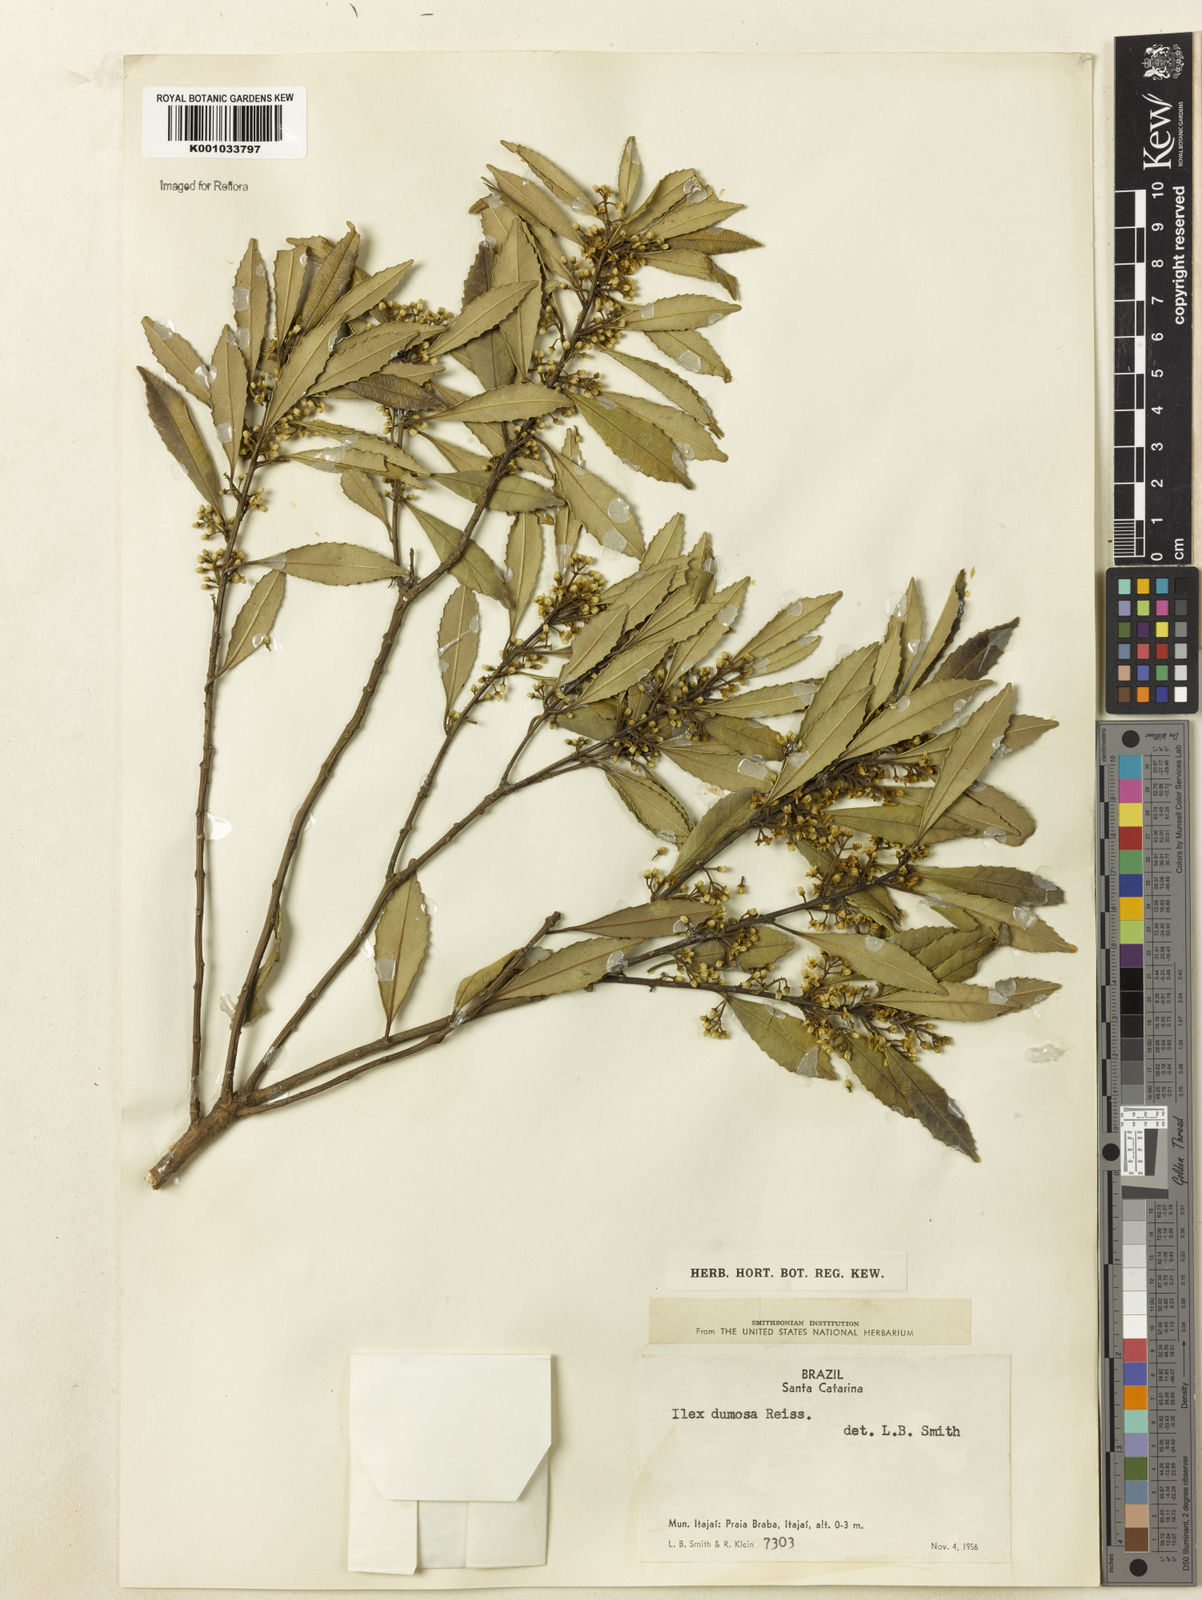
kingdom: Plantae
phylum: Tracheophyta
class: Magnoliopsida
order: Aquifoliales
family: Aquifoliaceae
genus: Ilex
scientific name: Ilex dumosa
